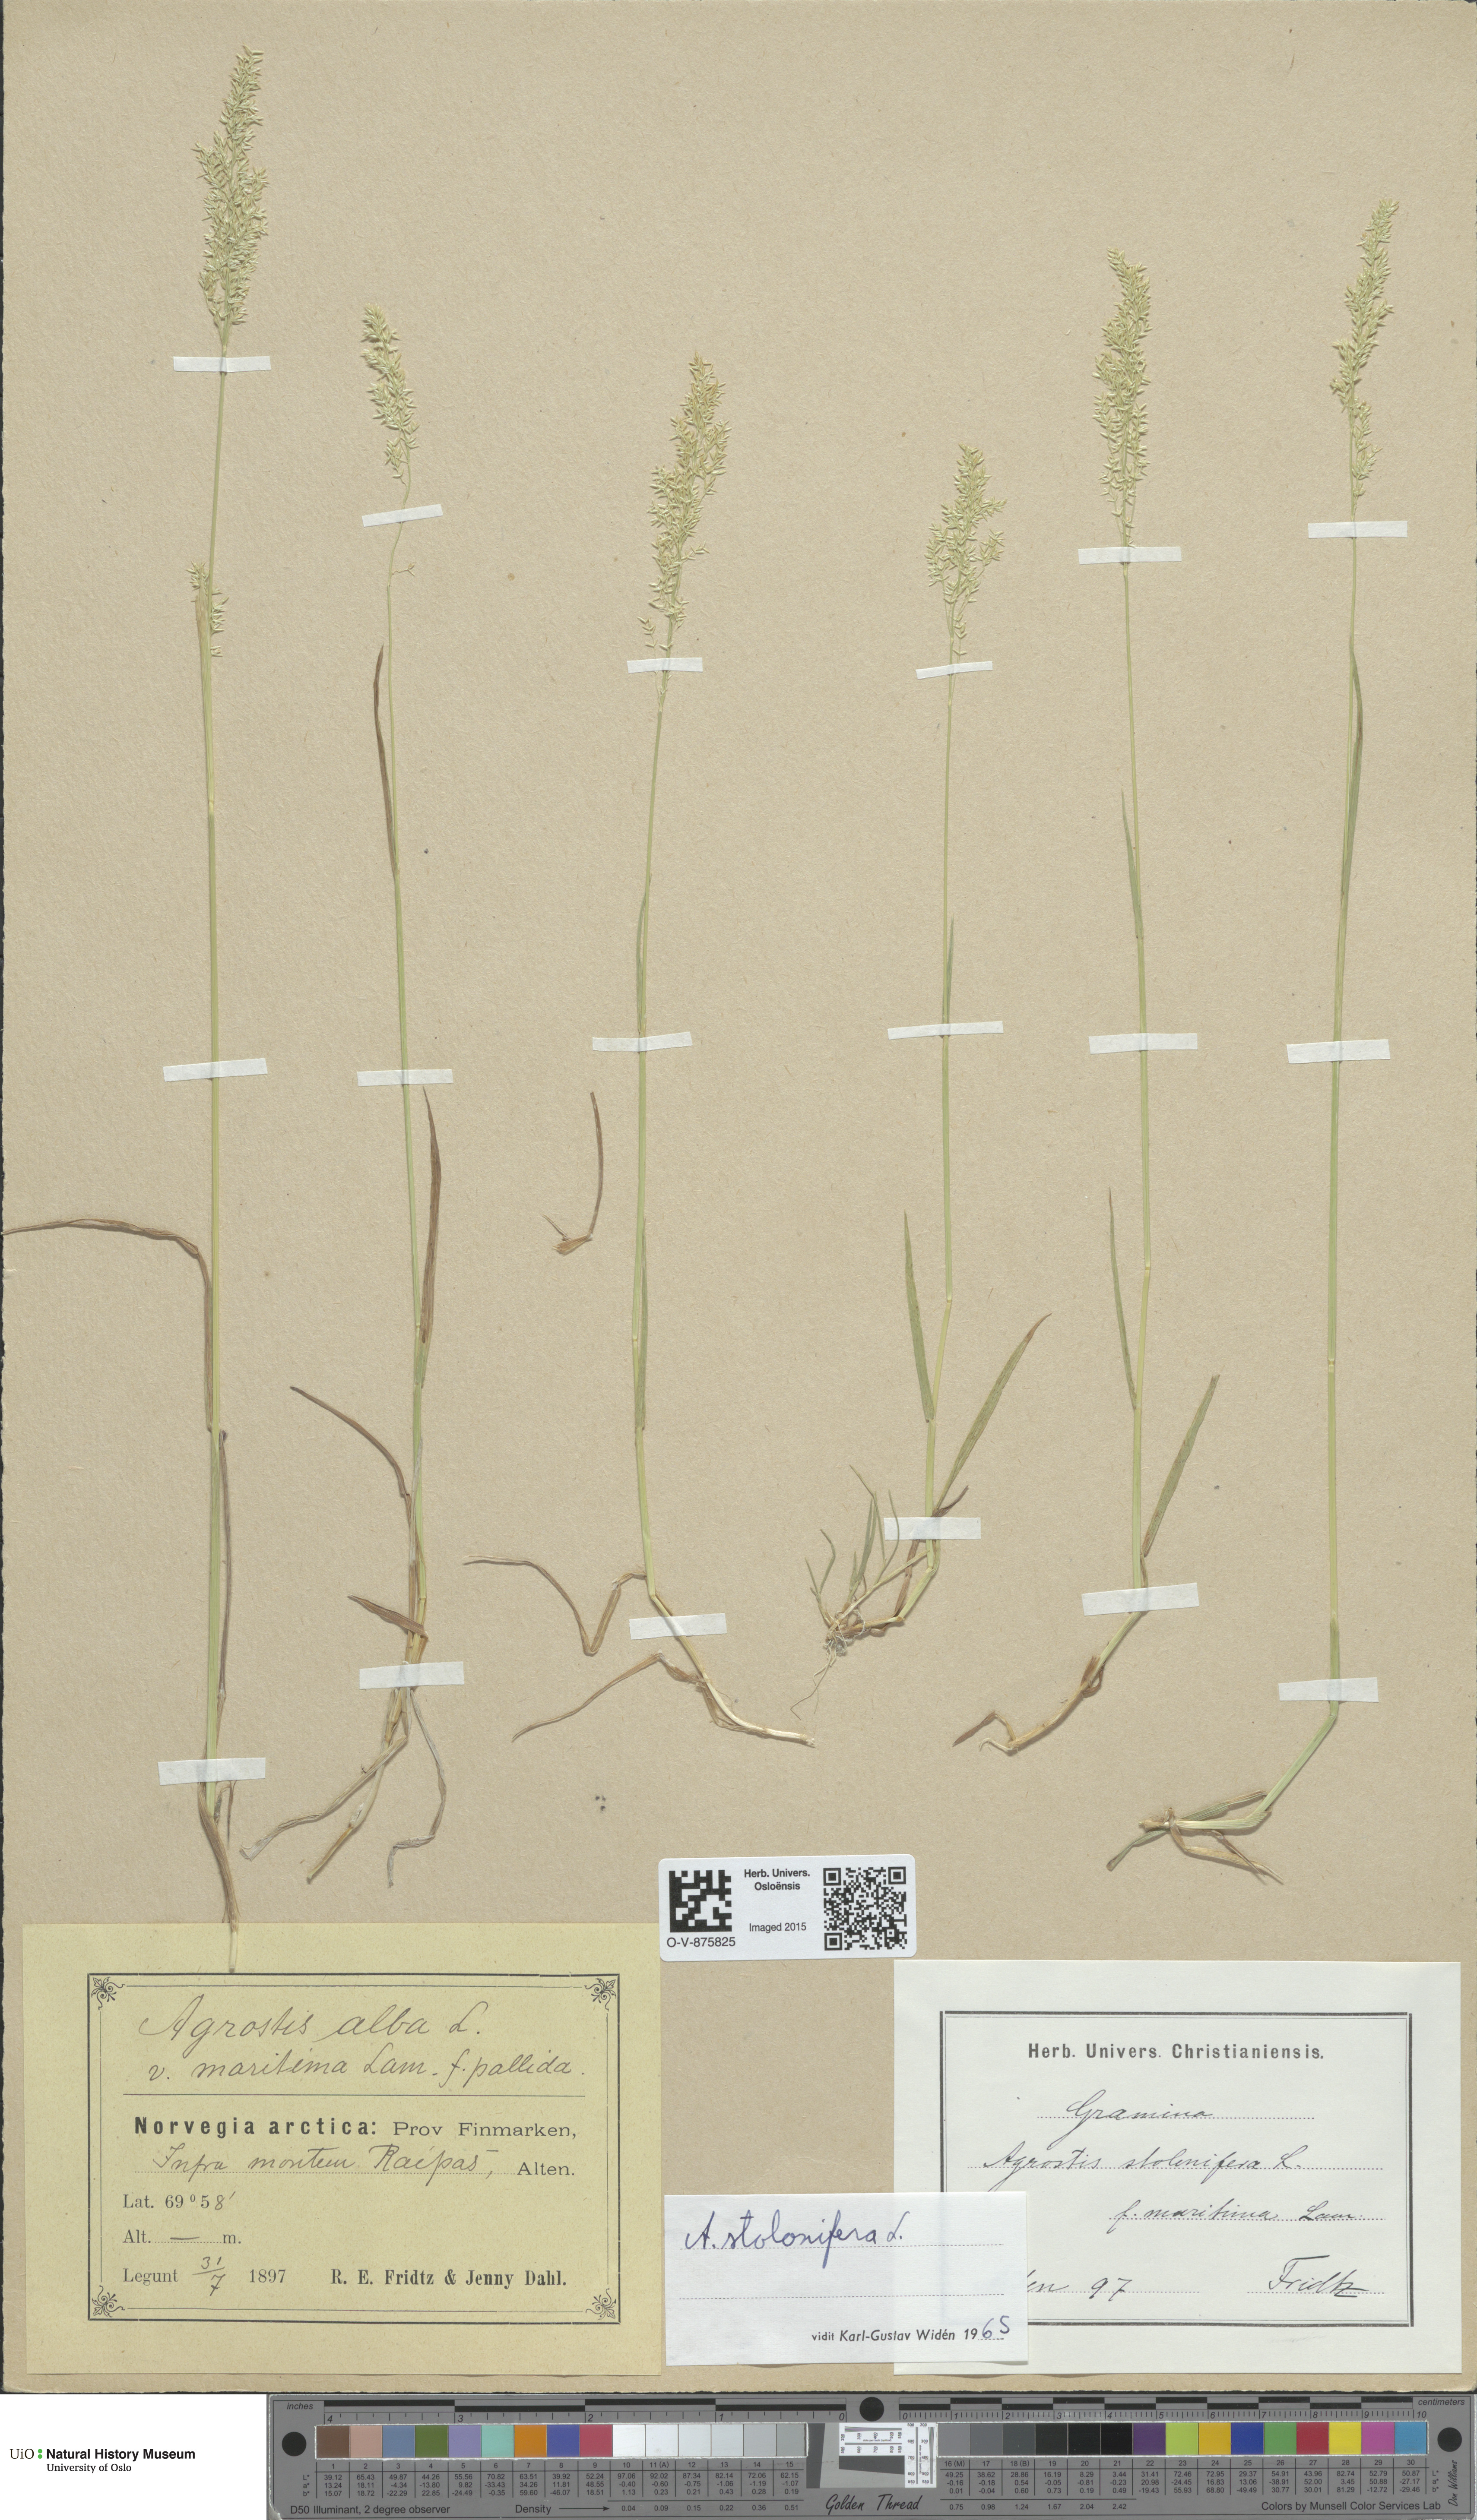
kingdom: Plantae
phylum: Tracheophyta
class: Liliopsida
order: Poales
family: Poaceae
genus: Agrostis
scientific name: Agrostis stolonifera
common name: Creeping bentgrass
